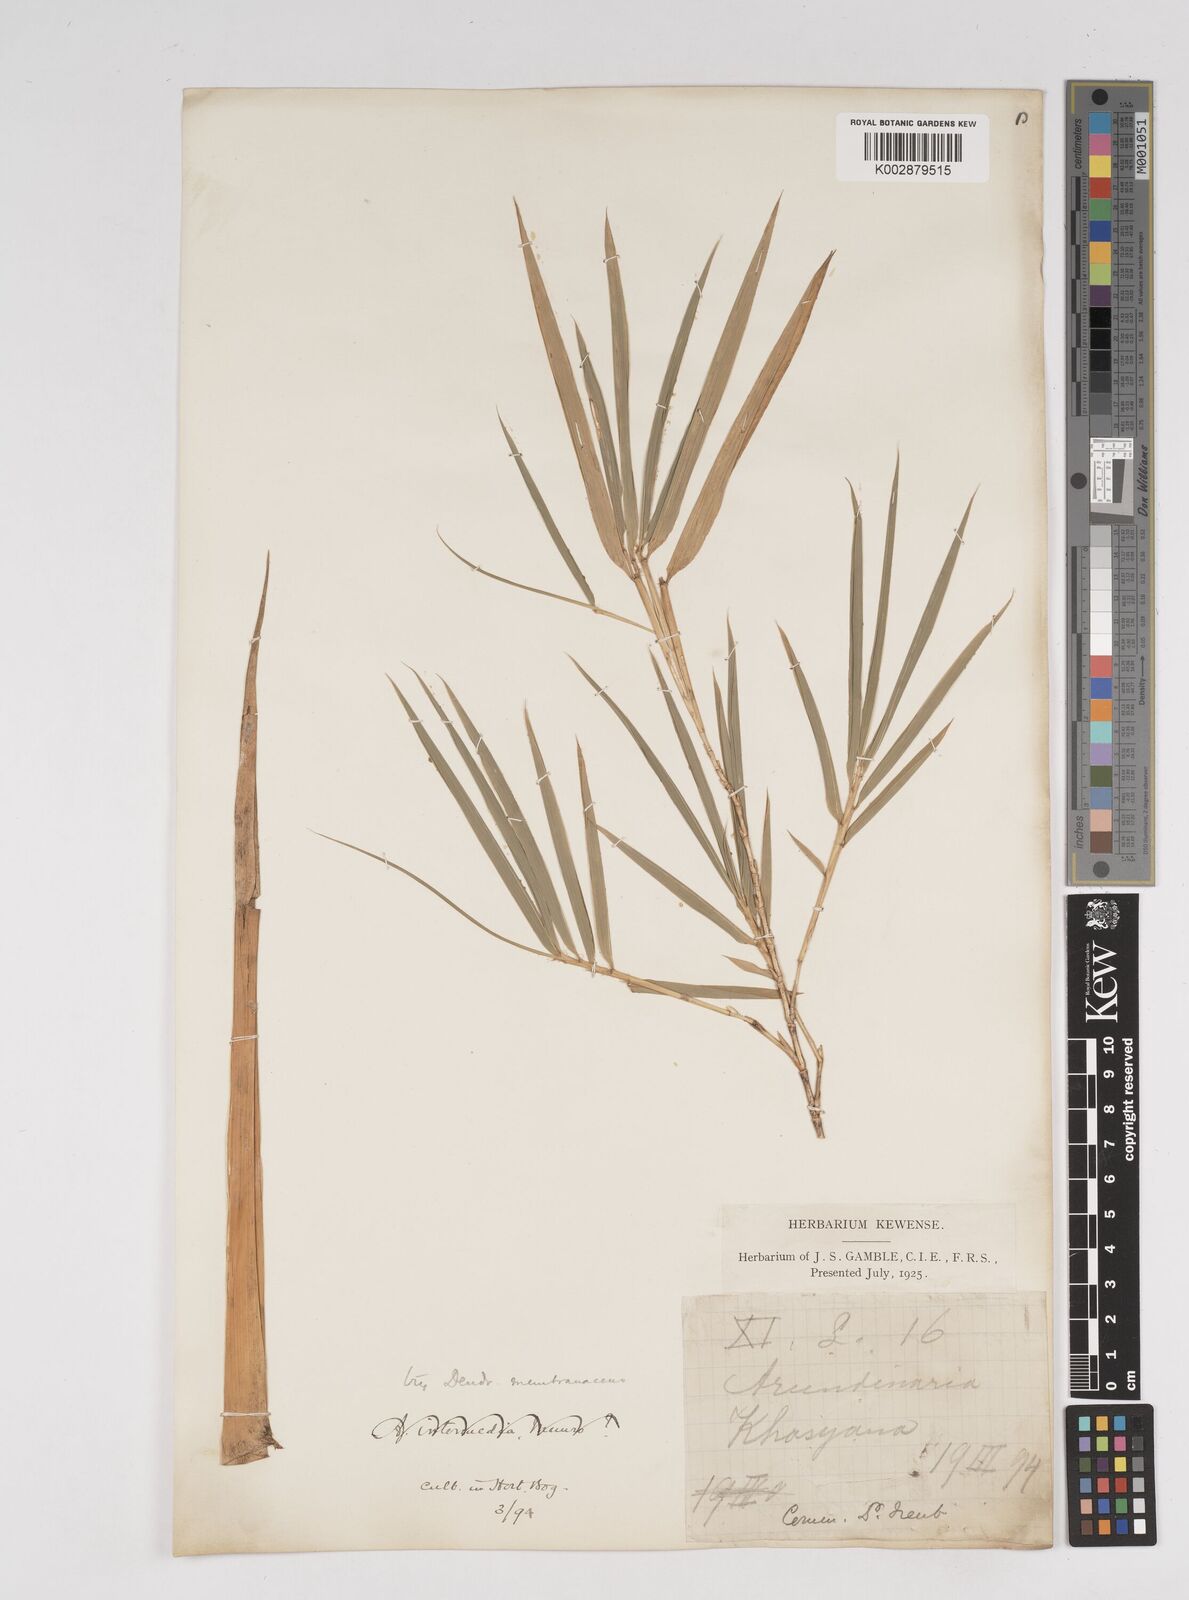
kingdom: Plantae
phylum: Tracheophyta
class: Liliopsida
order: Poales
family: Poaceae
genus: Dendrocalamus
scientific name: Dendrocalamus membranaceus
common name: White bamboo
